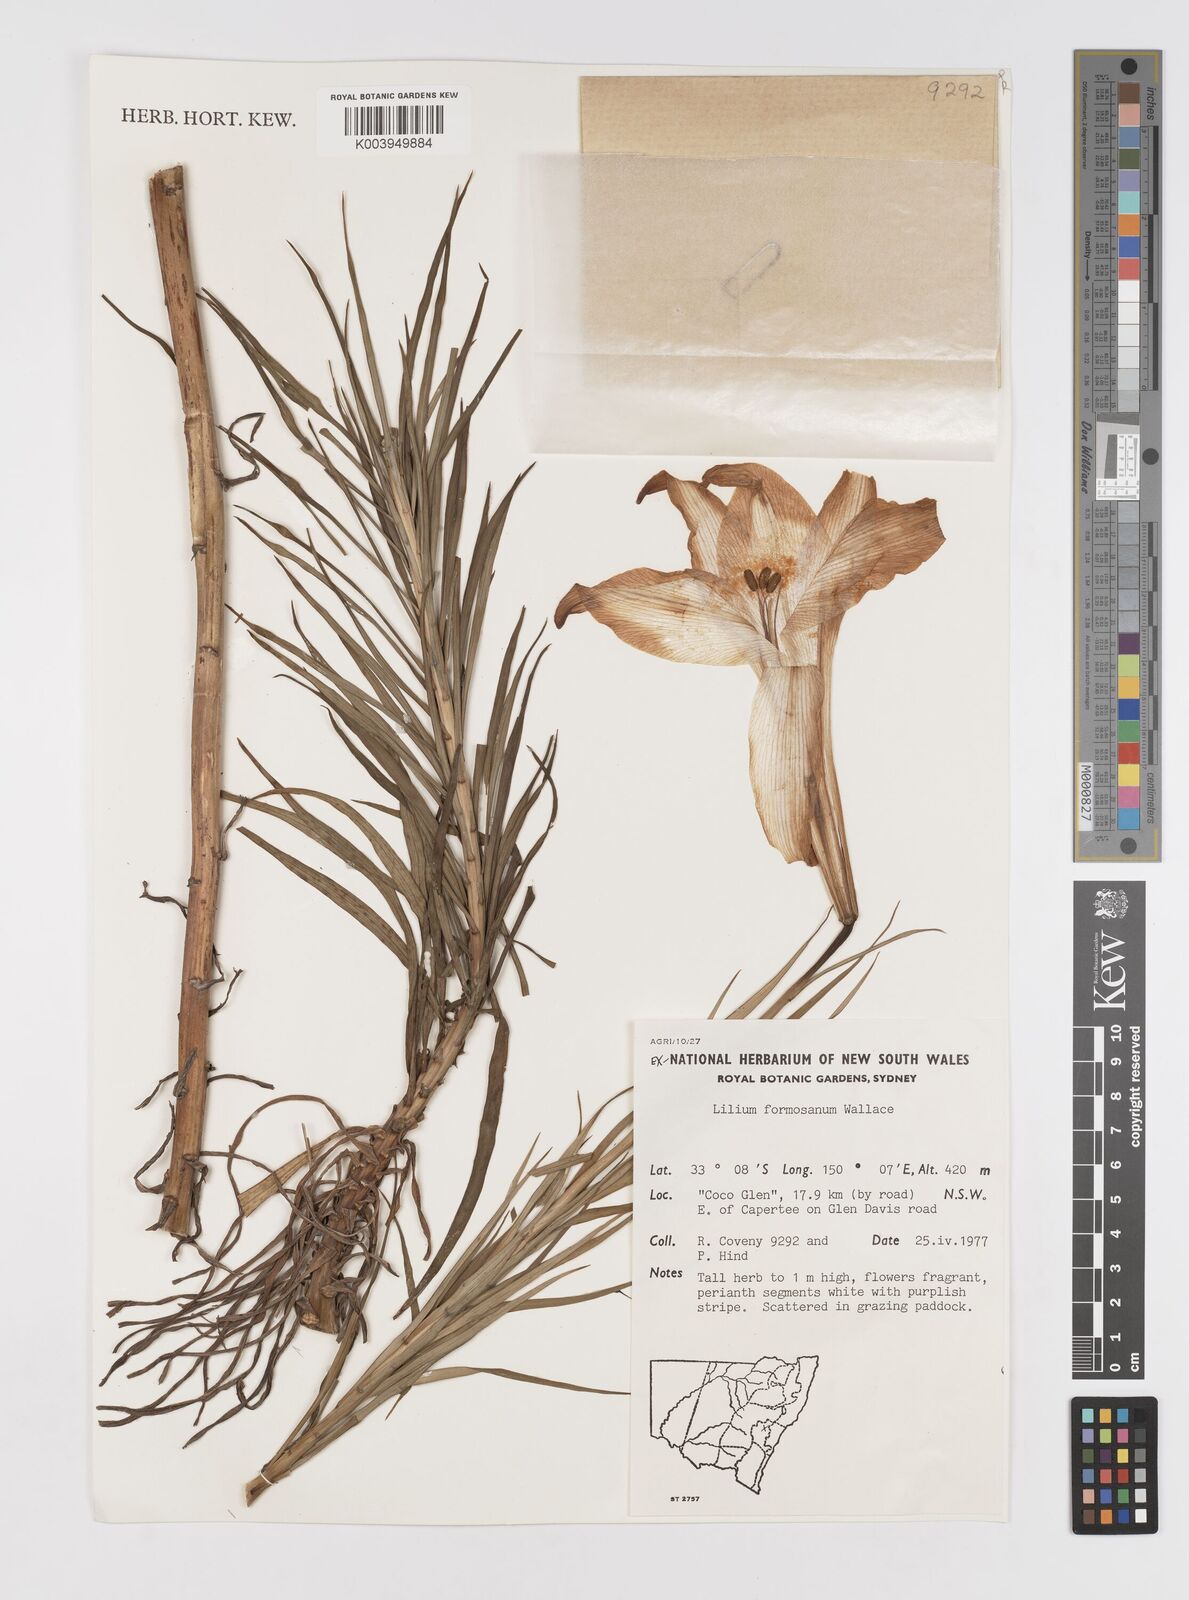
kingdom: Plantae
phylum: Tracheophyta
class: Liliopsida
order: Liliales
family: Liliaceae
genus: Lilium
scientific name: Lilium formosanum
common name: Formosa lily
